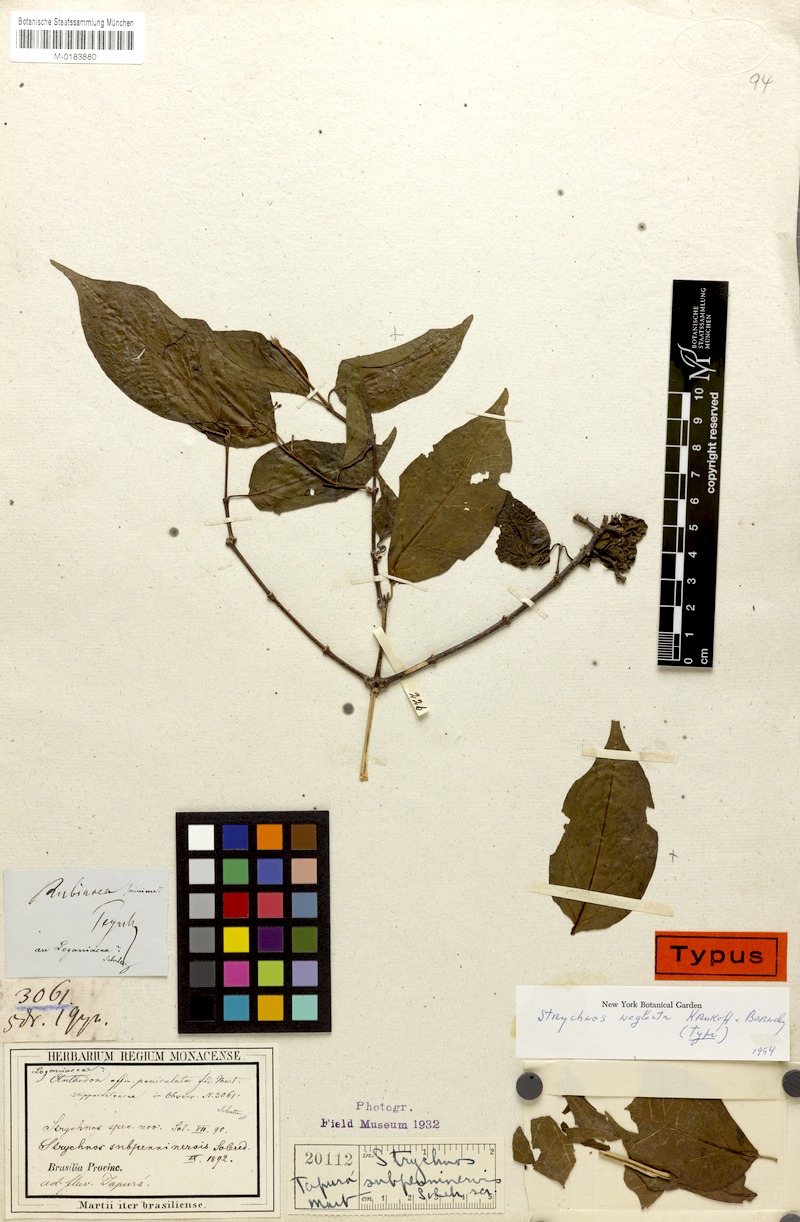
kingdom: Plantae
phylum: Tracheophyta
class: Magnoliopsida
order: Gentianales
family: Loganiaceae
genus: Strychnos
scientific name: Strychnos neglecta
